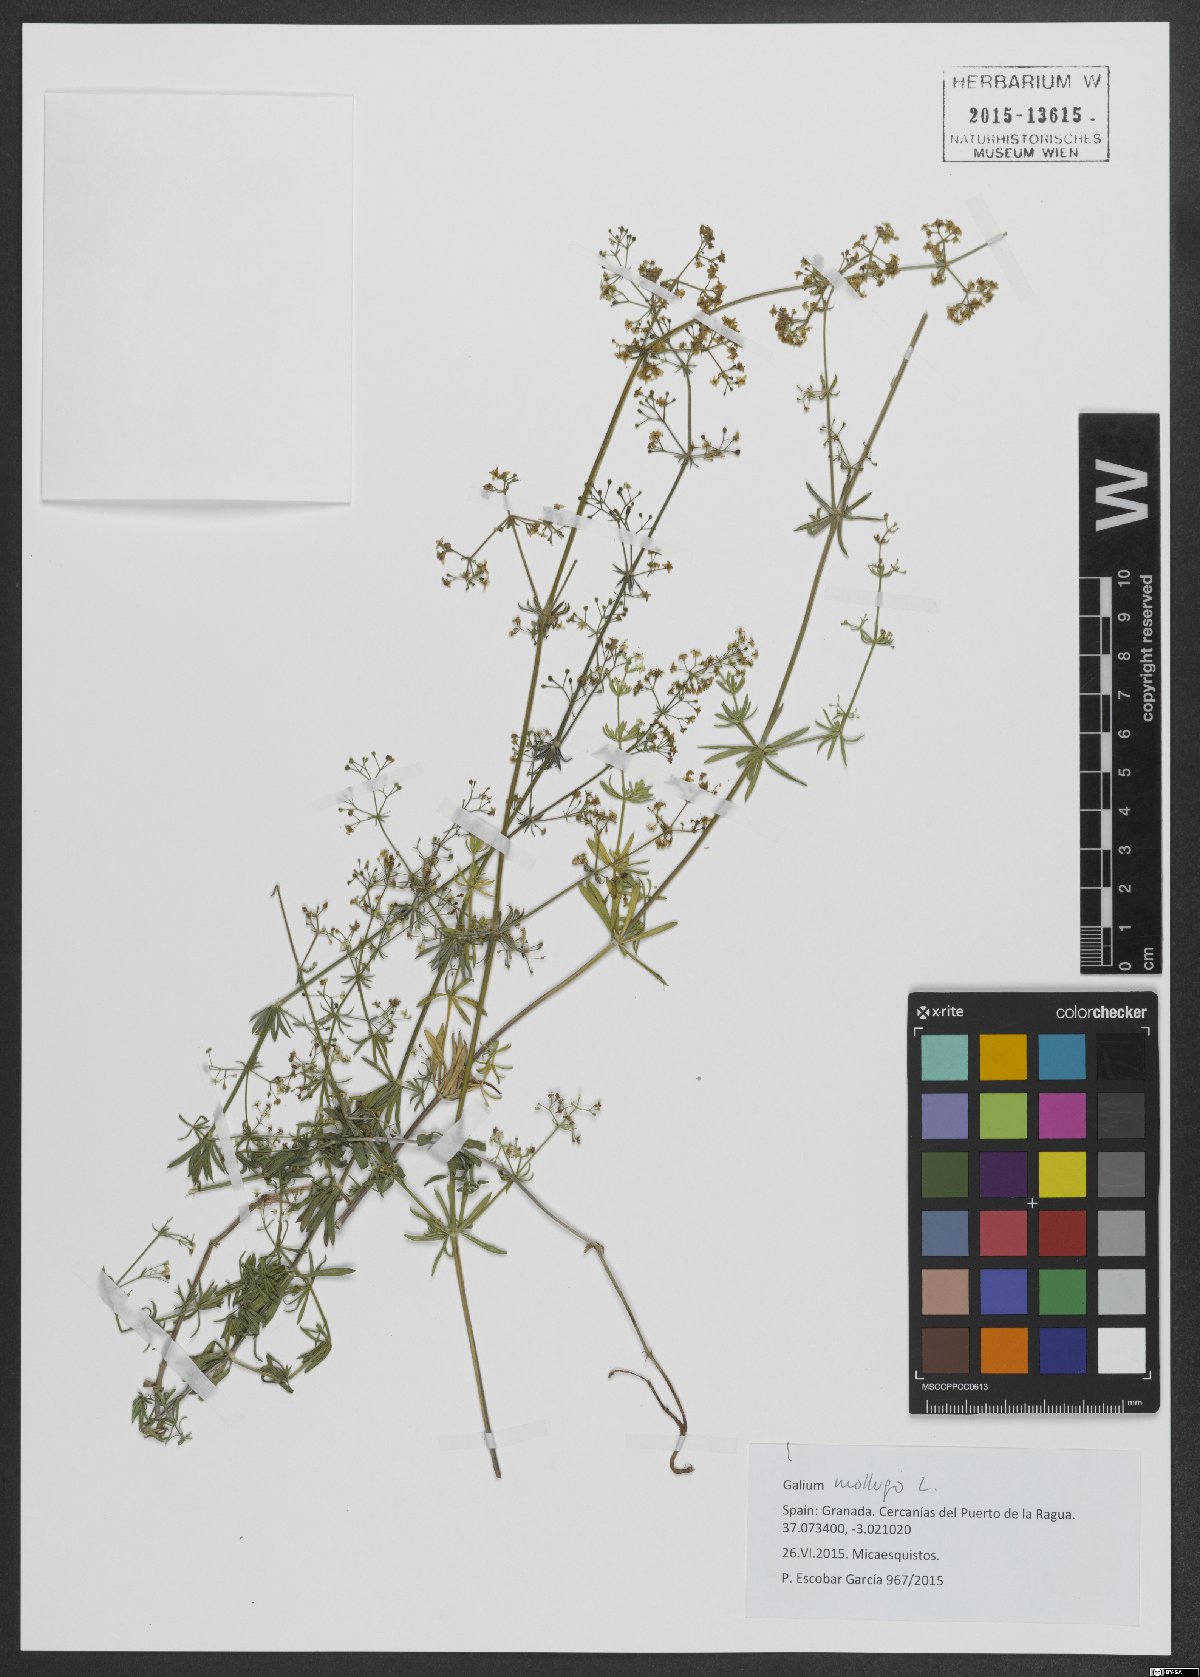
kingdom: Plantae
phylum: Tracheophyta
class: Magnoliopsida
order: Gentianales
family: Rubiaceae
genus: Galium
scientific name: Galium mollugo
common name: Hedge bedstraw
